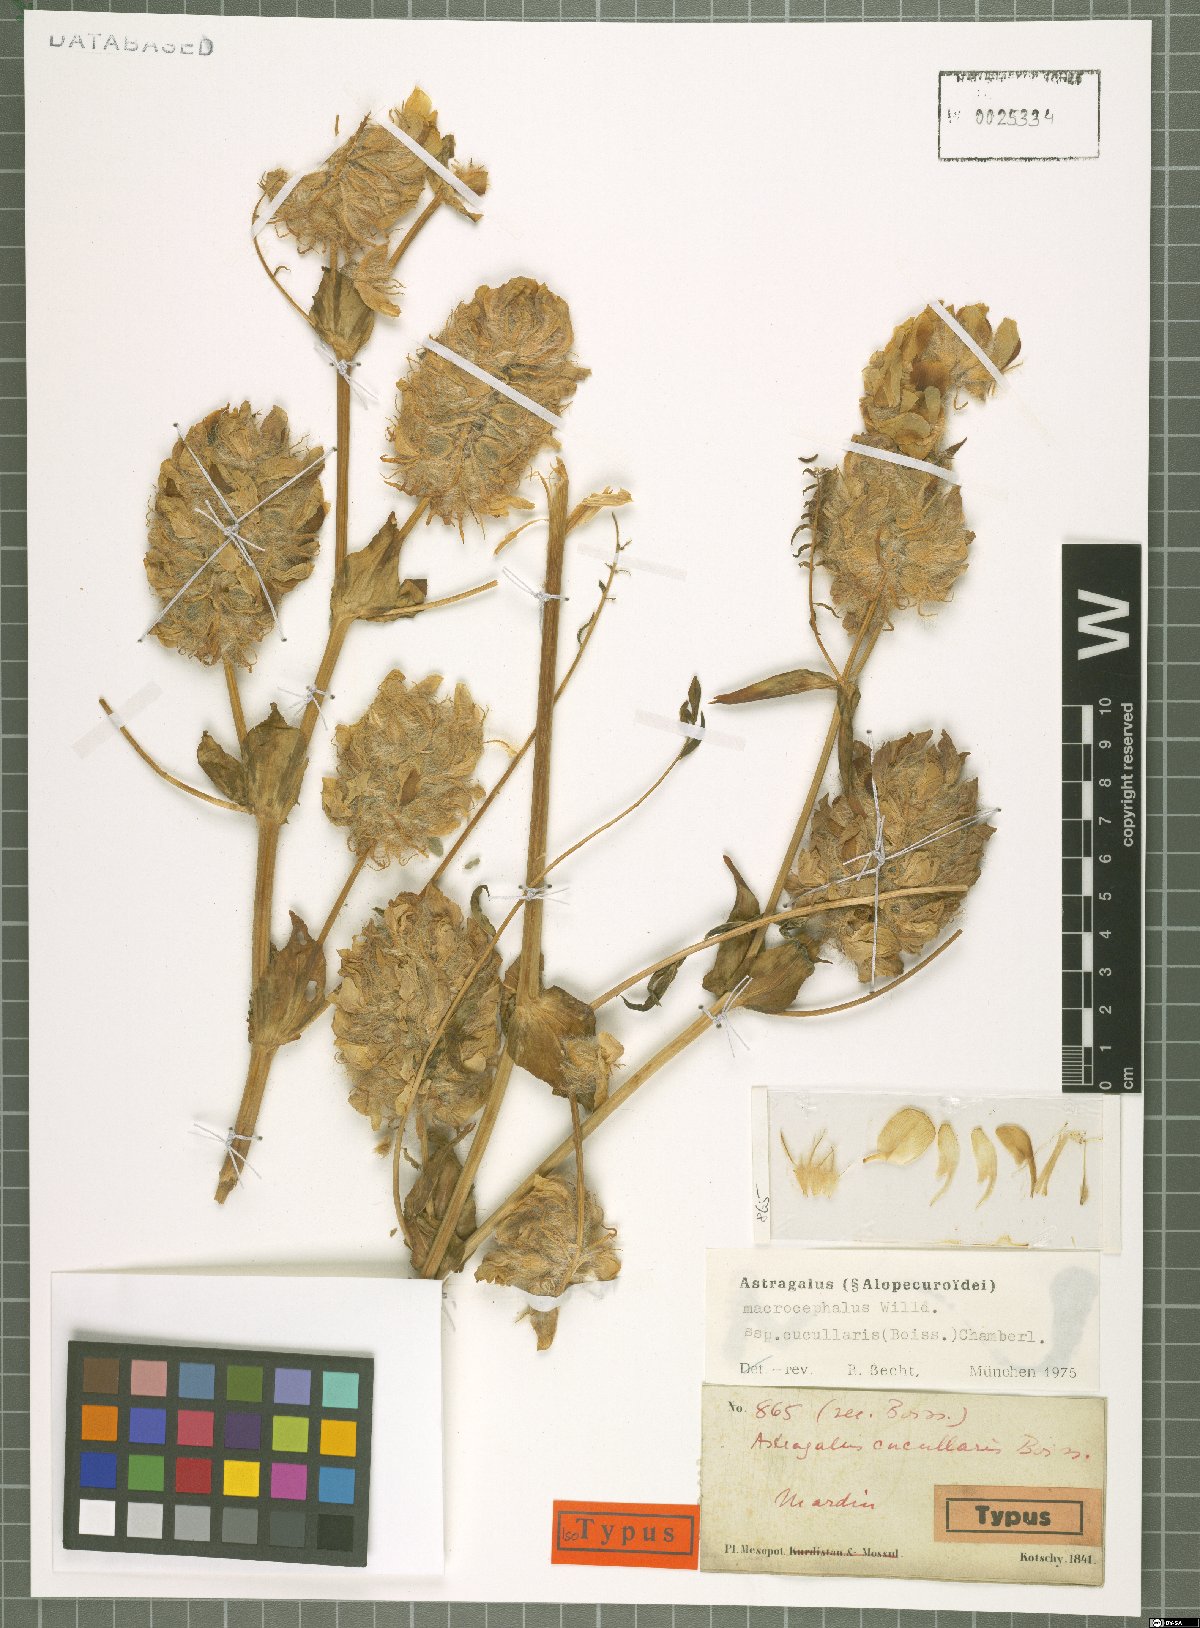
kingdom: Plantae
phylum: Tracheophyta
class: Magnoliopsida
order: Fabales
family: Fabaceae
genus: Astragalus
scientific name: Astragalus macrocephalus
